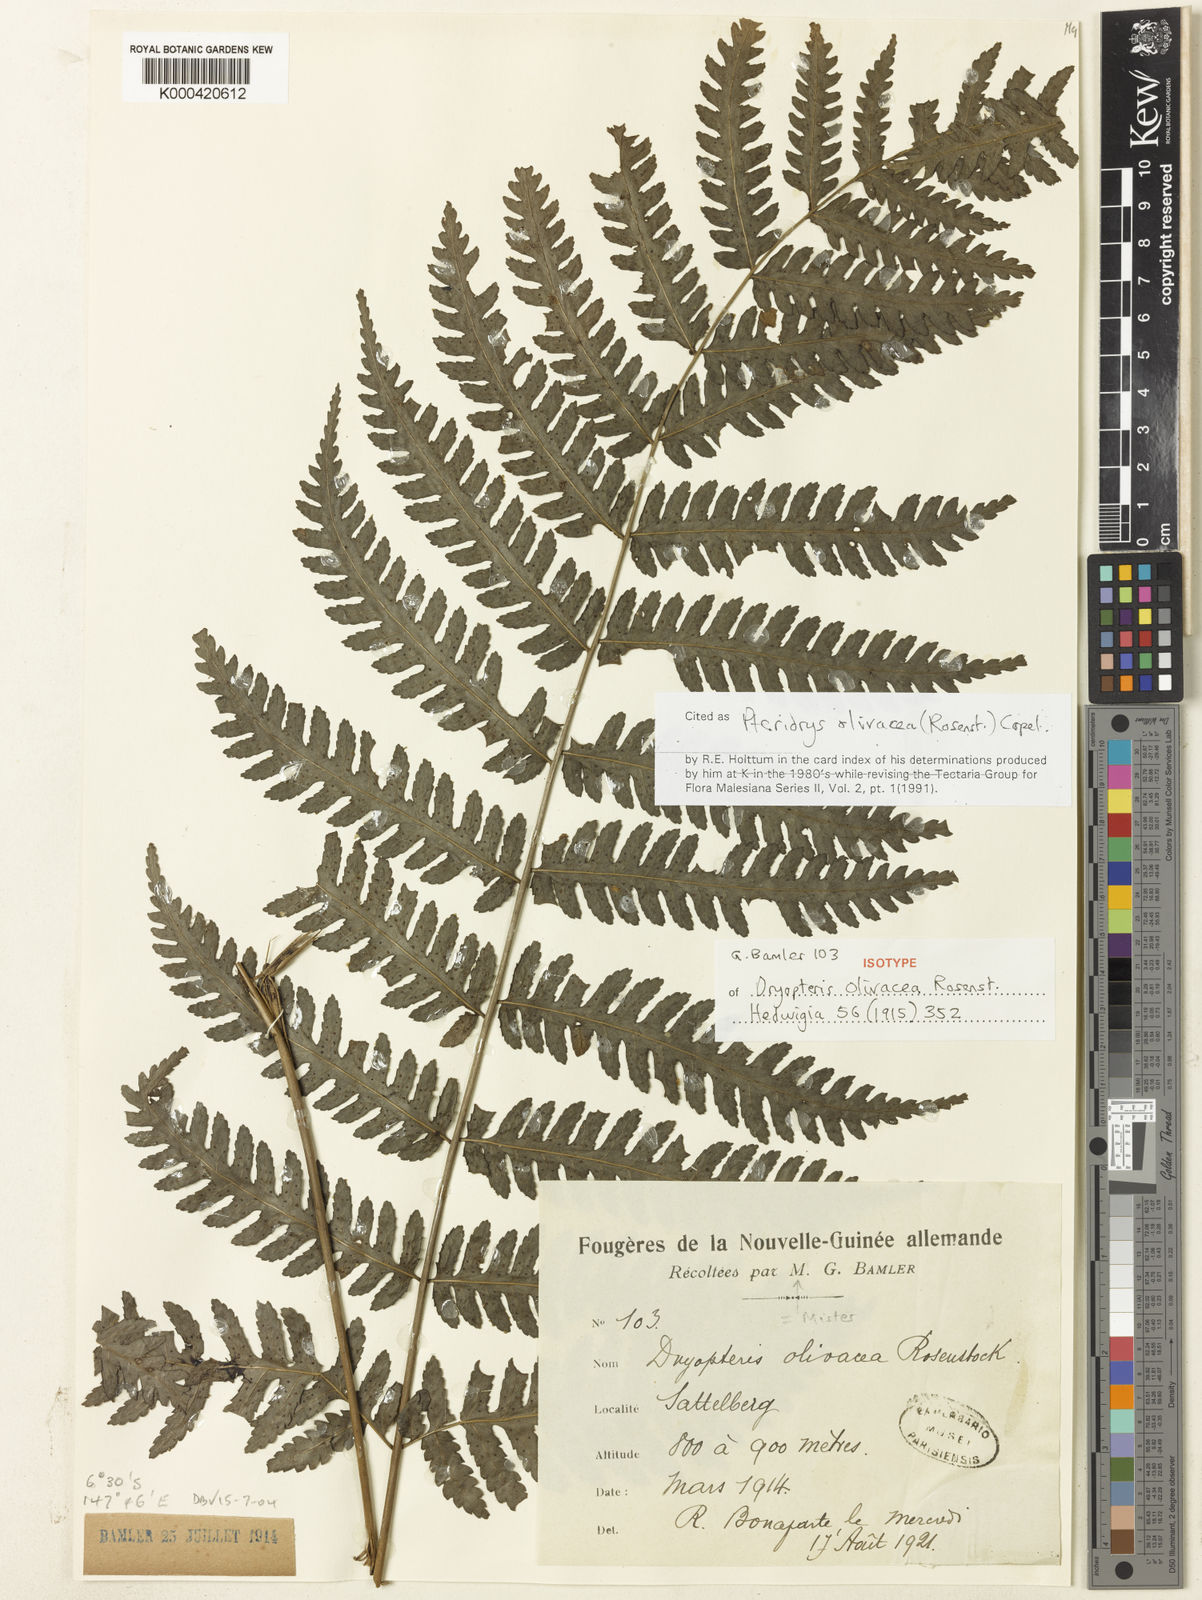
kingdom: Plantae
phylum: Tracheophyta
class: Polypodiopsida
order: Polypodiales
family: Tectariaceae
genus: Pteridrys
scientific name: Pteridrys olivacea
